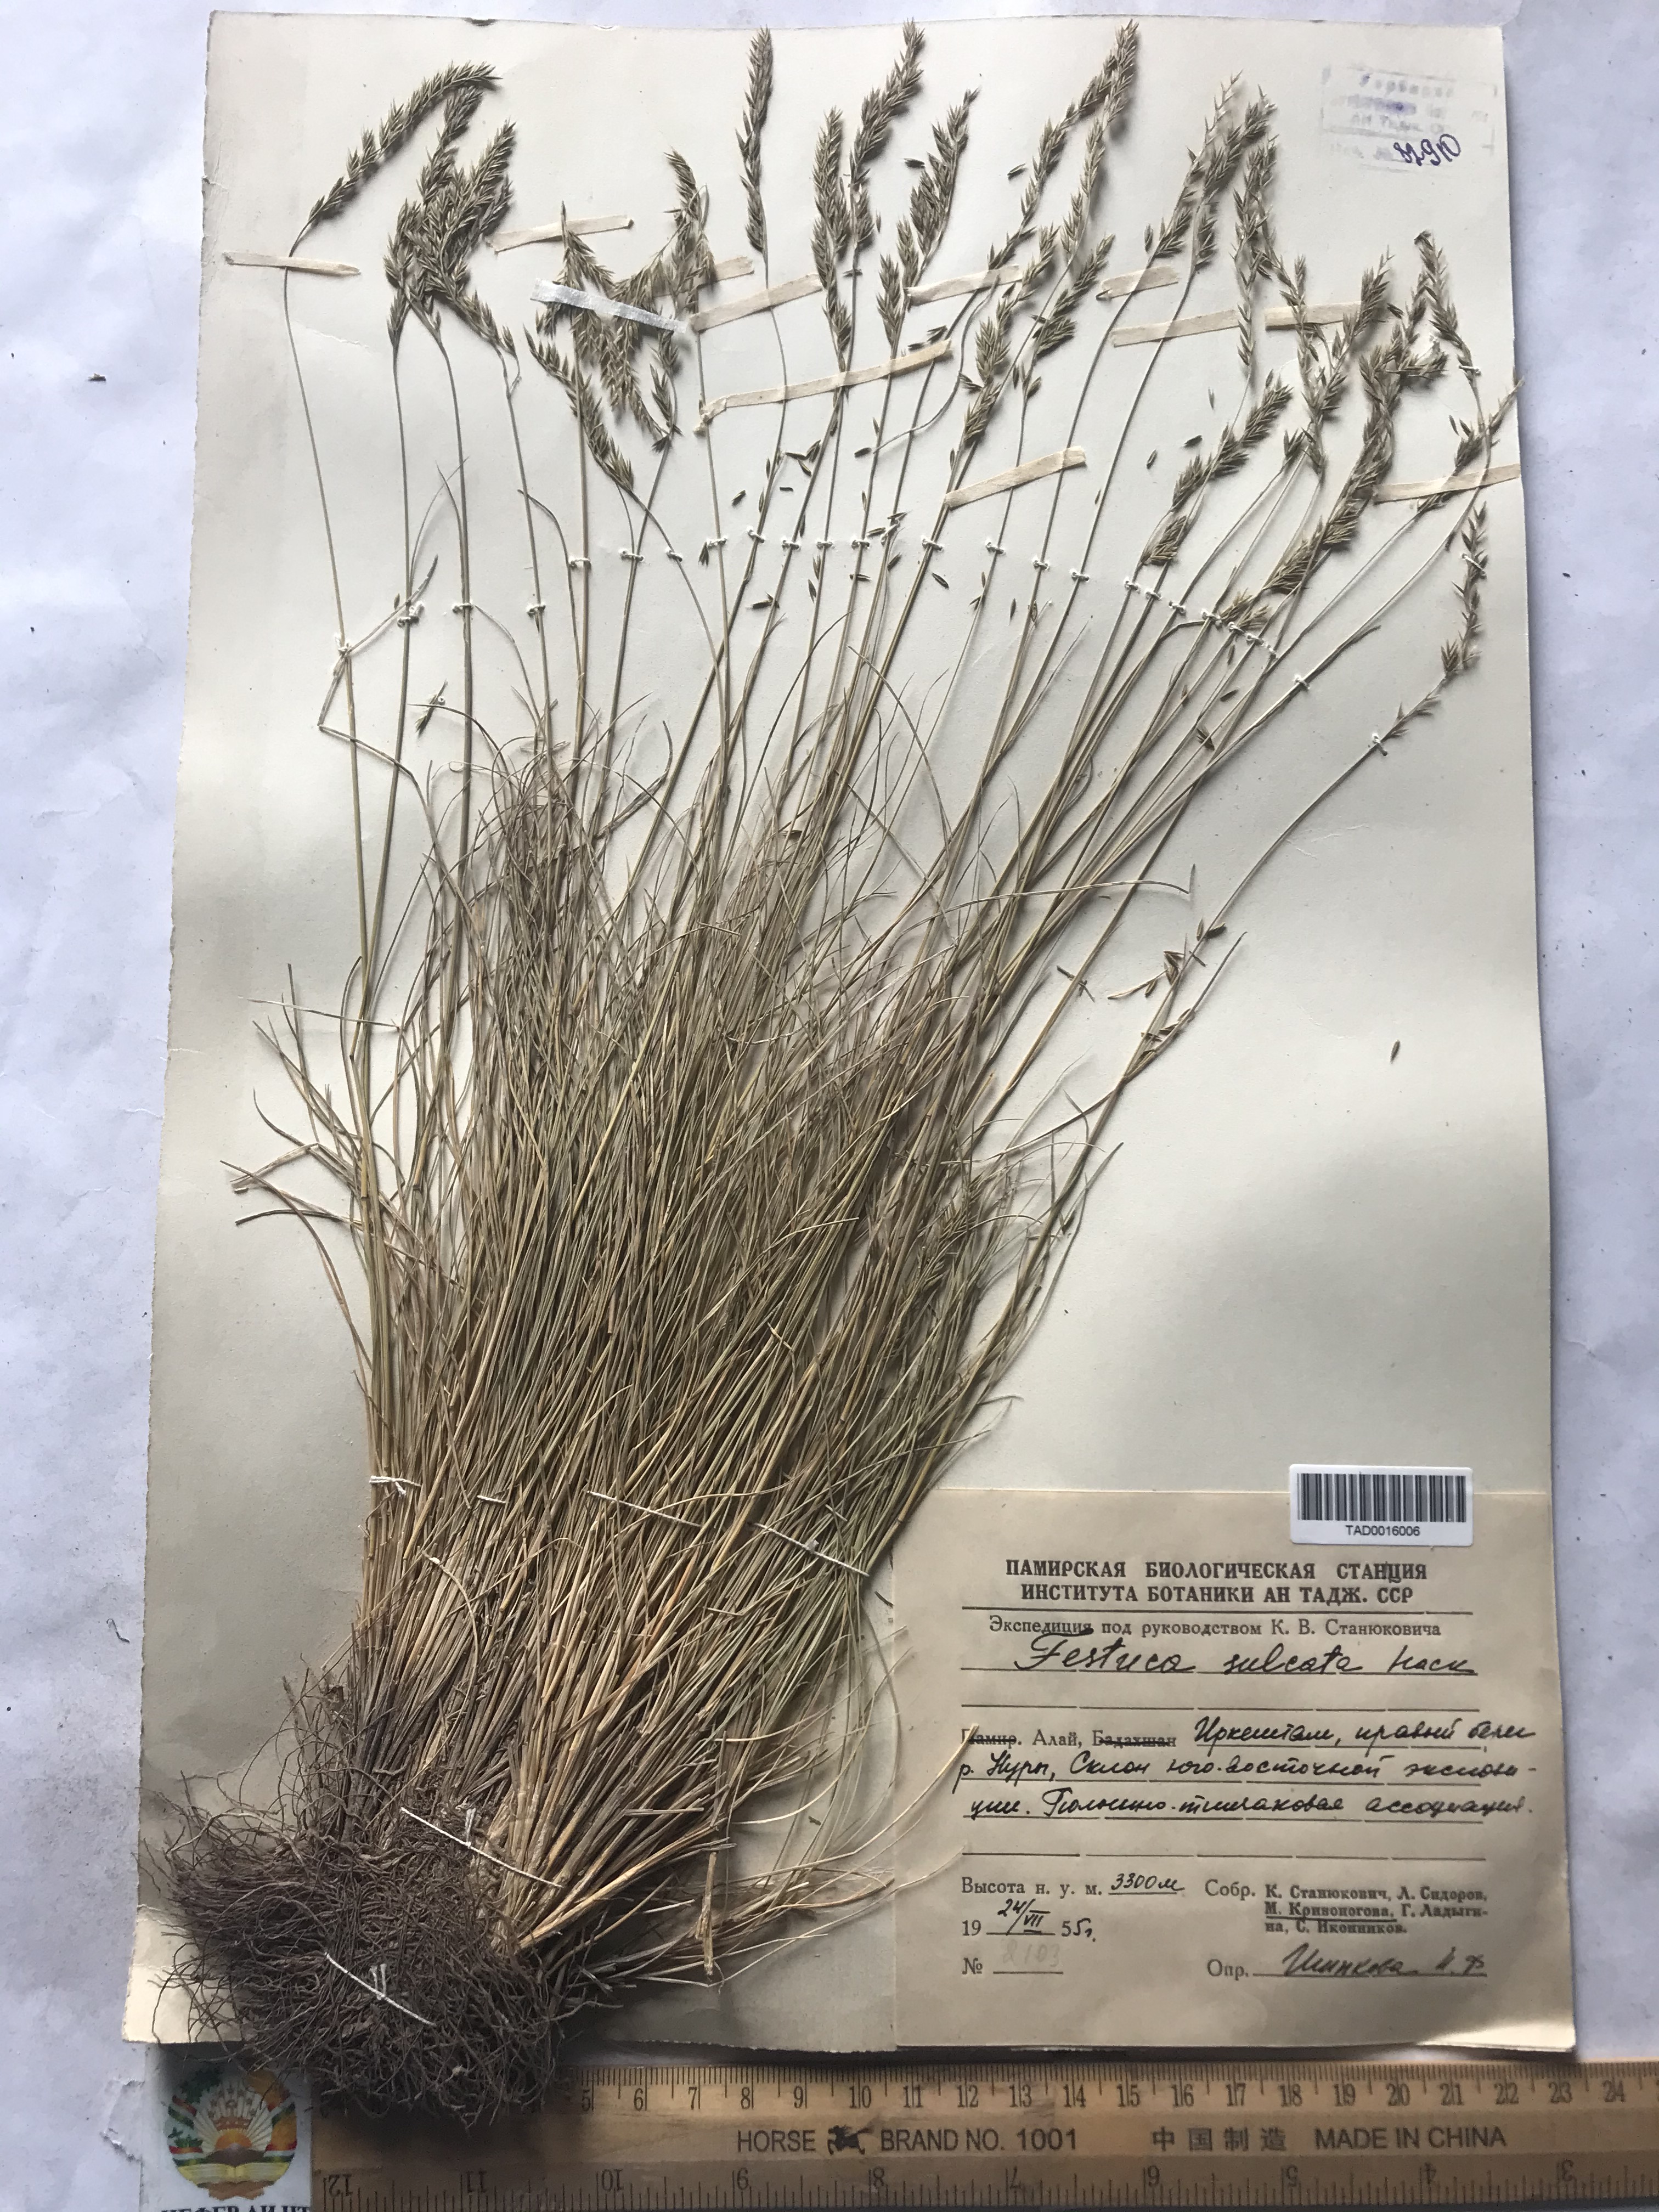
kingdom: Plantae
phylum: Tracheophyta
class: Liliopsida
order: Poales
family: Poaceae
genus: Festuca
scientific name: Festuca sulcata
